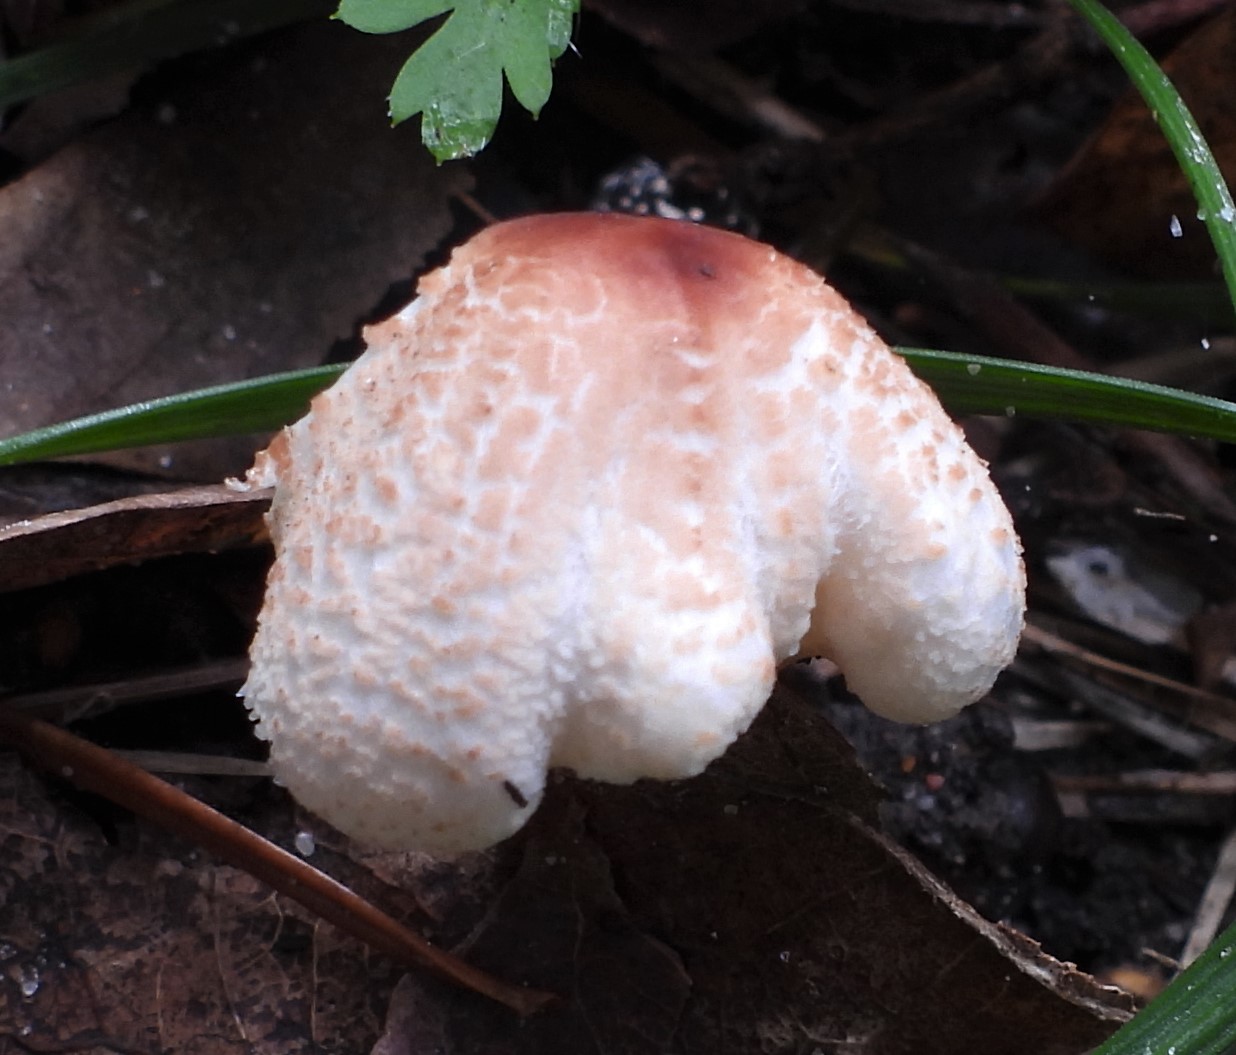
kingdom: Fungi
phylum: Basidiomycota
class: Agaricomycetes
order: Agaricales
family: Agaricaceae
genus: Lepiota
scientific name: Lepiota cristata
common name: stinkende parasolhat
